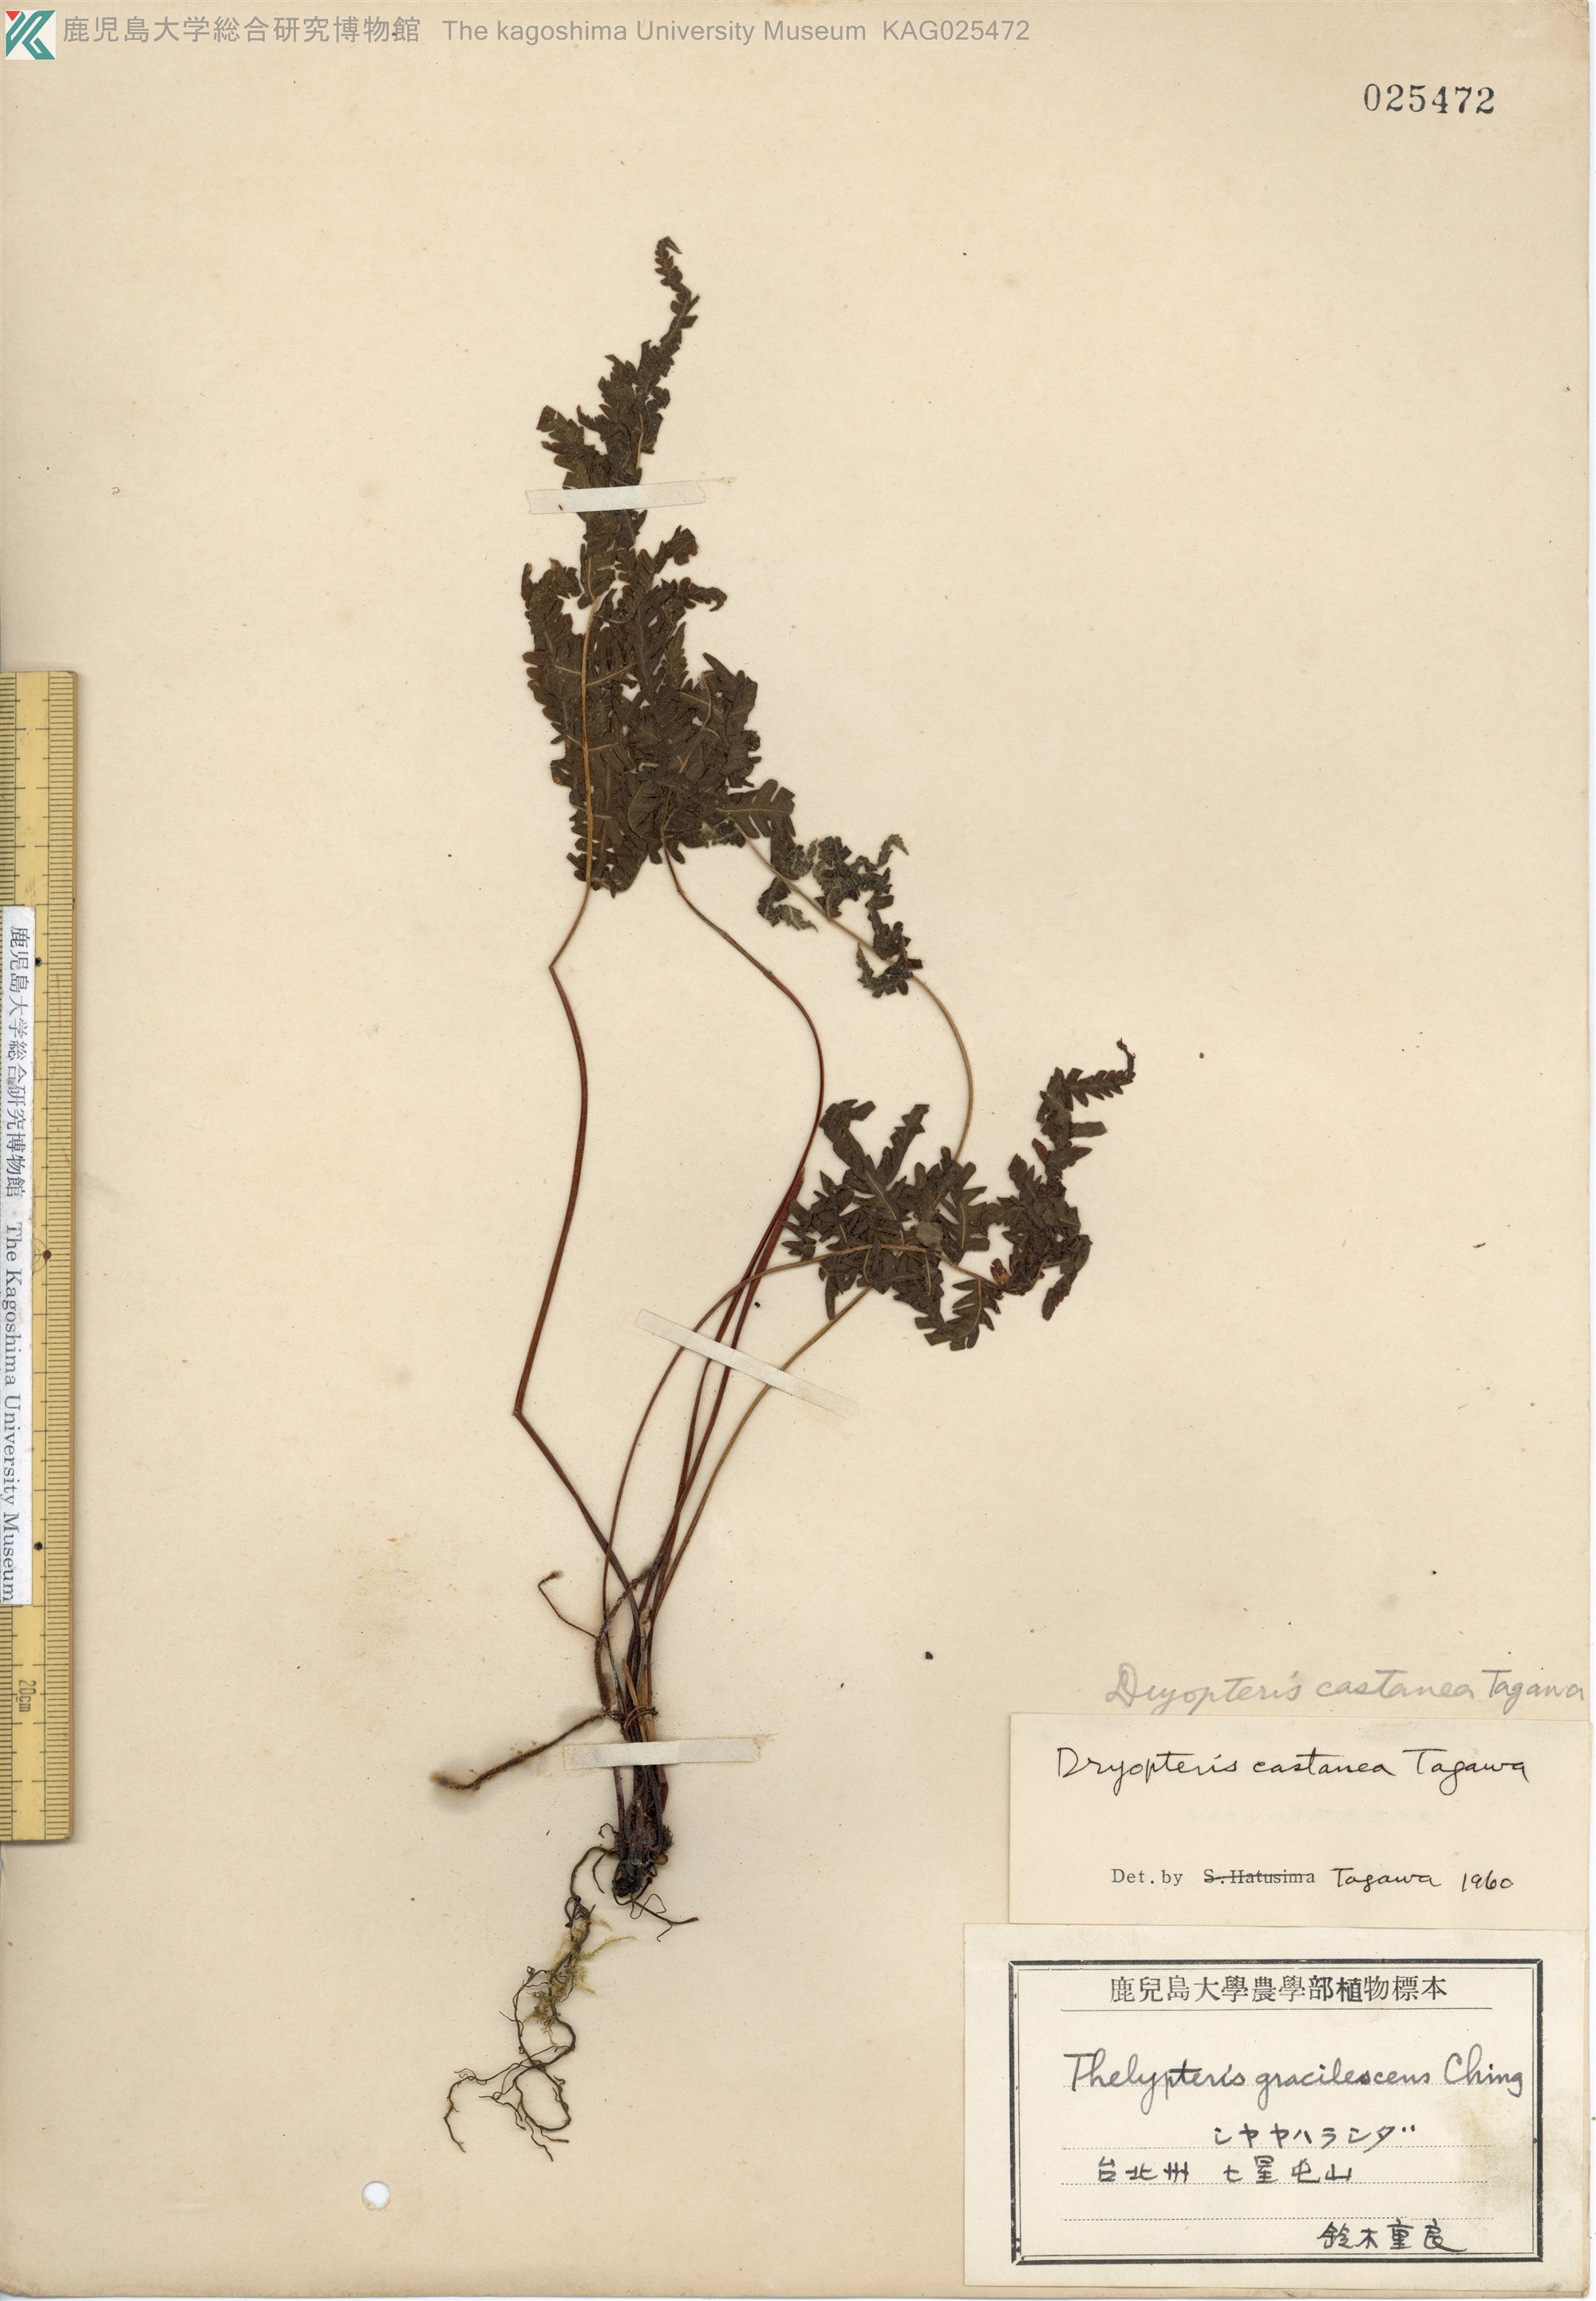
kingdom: Plantae
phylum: Tracheophyta
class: Polypodiopsida
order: Polypodiales
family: Thelypteridaceae
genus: Metathelypteris
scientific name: Metathelypteris uraiensis
